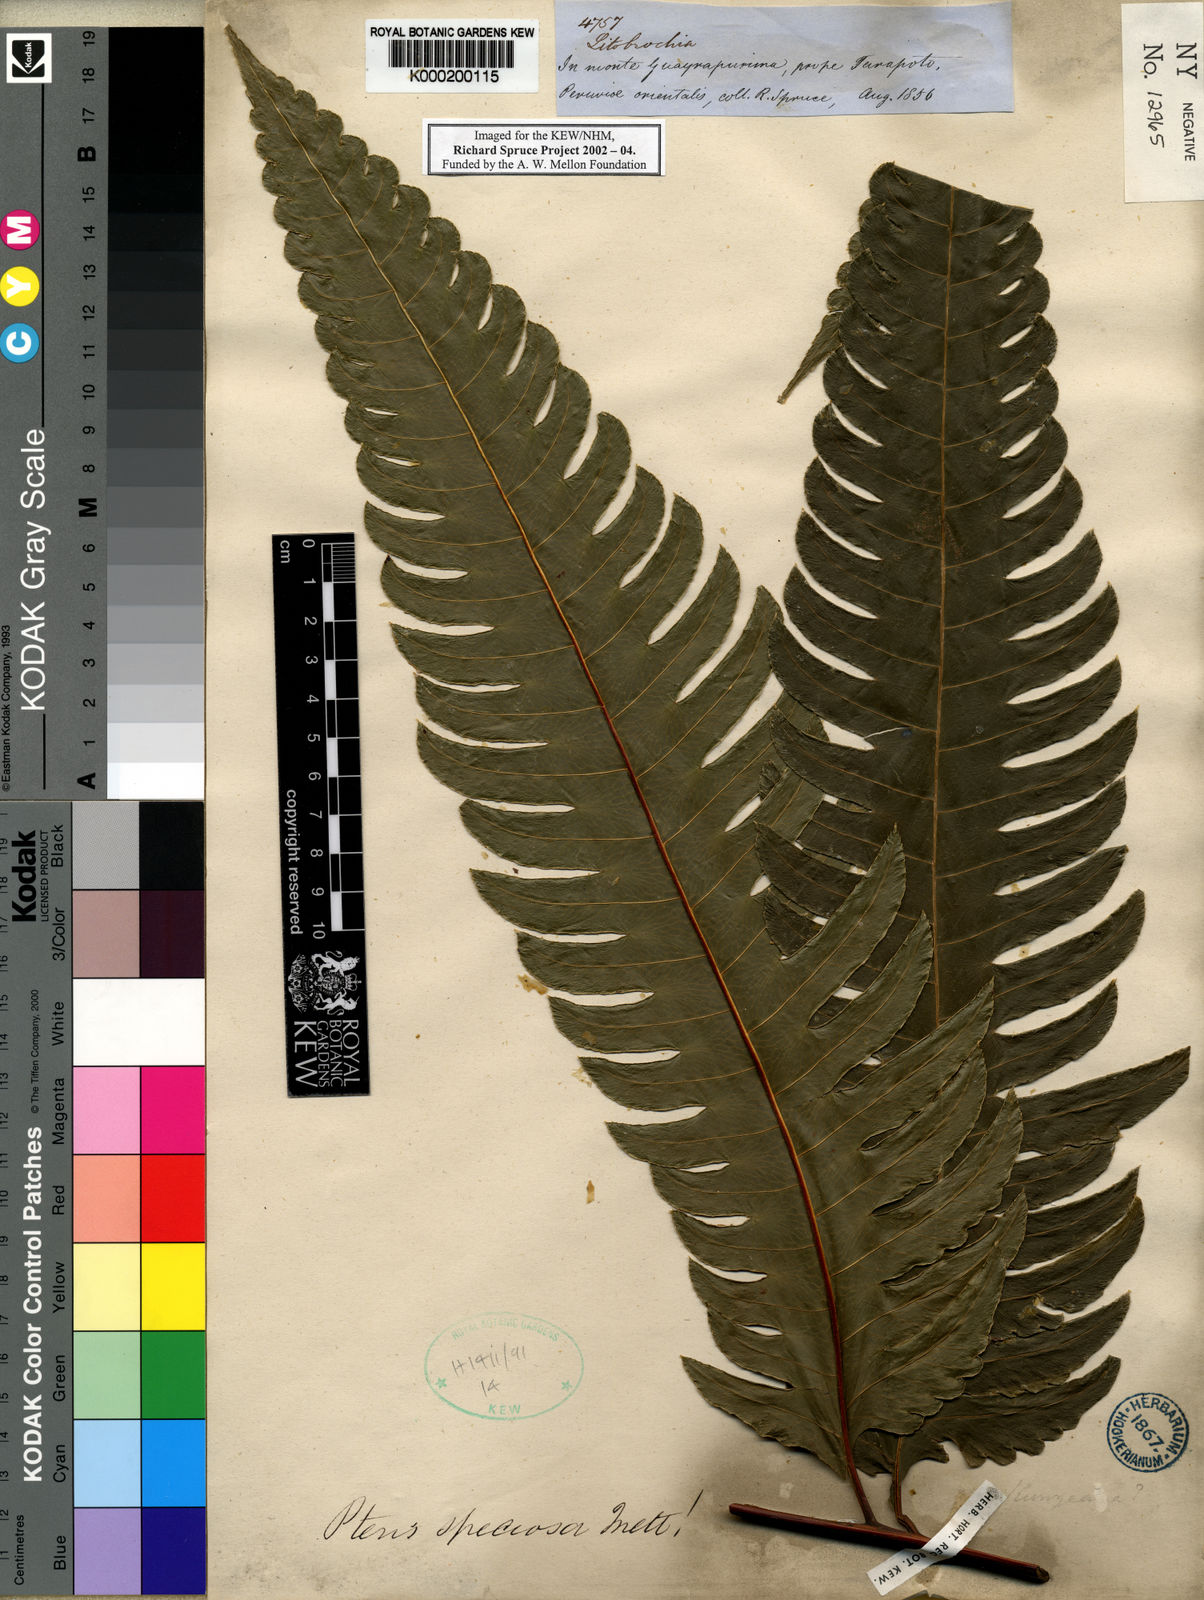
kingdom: Plantae
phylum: Tracheophyta
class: Polypodiopsida
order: Polypodiales
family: Pteridaceae
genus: Pteris
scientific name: Pteris speciosa
